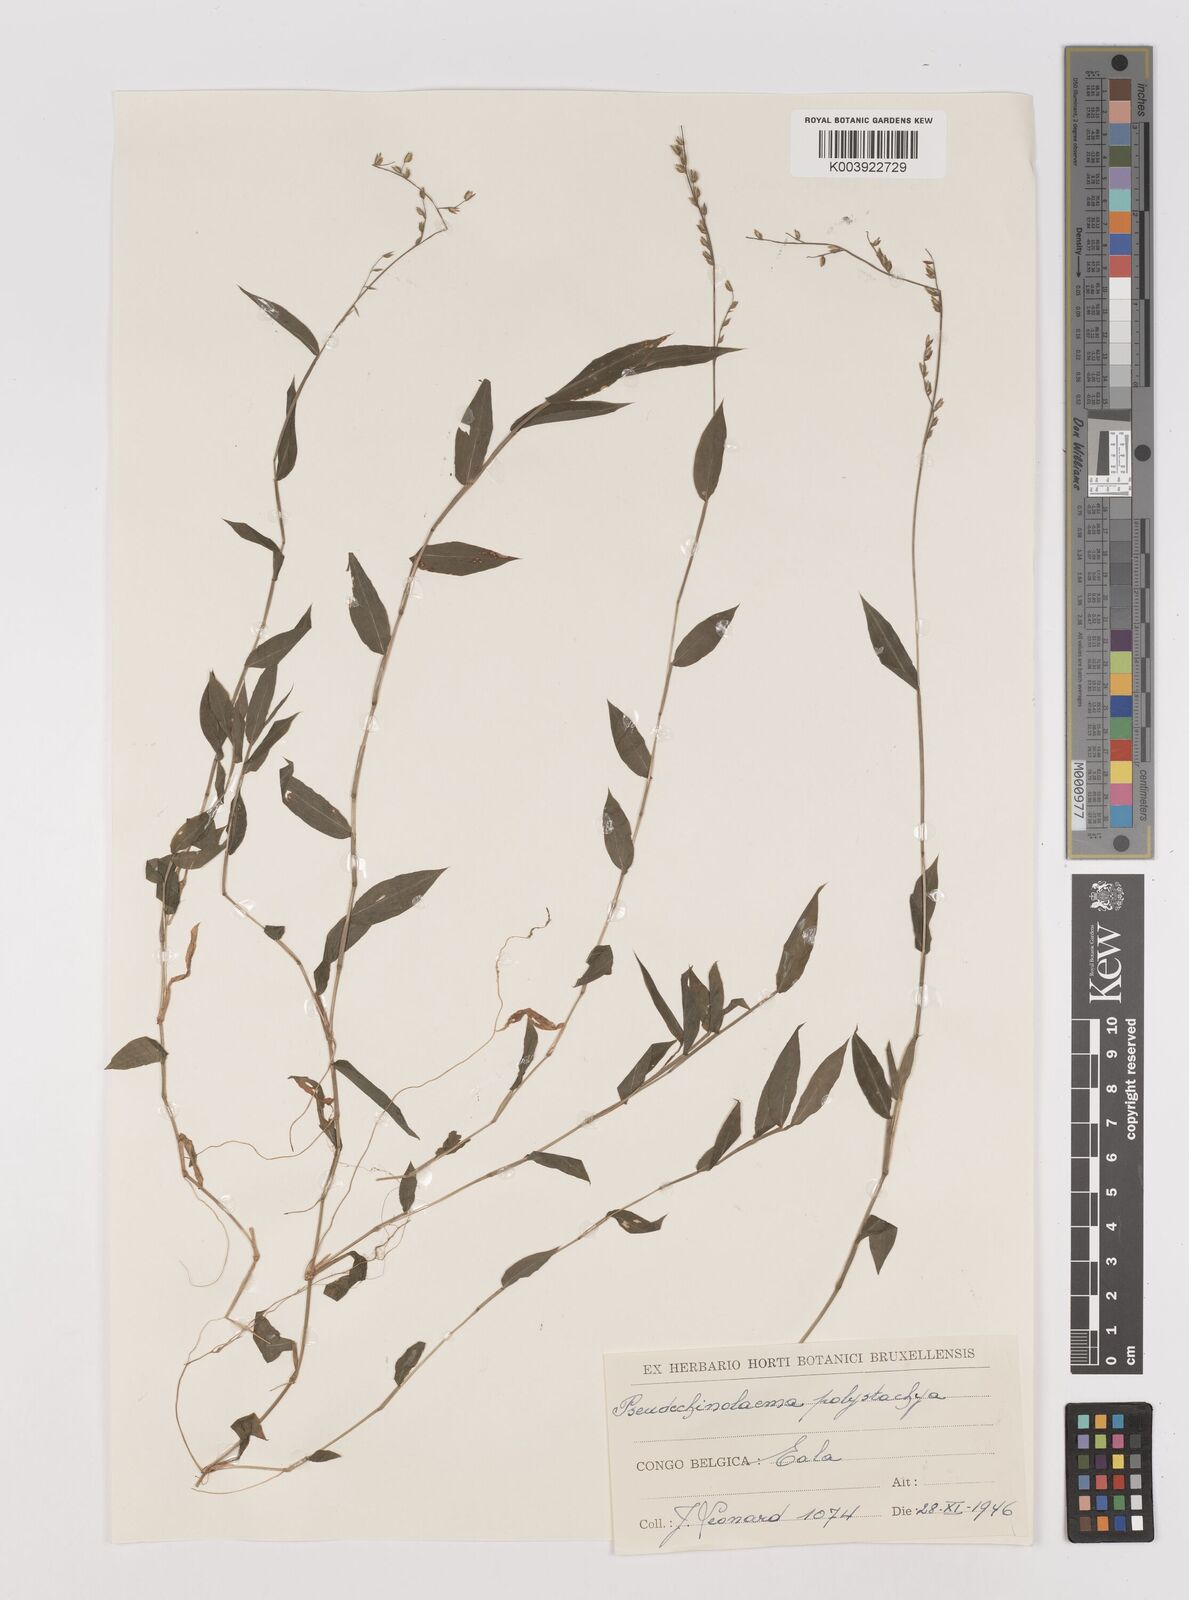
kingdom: Plantae
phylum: Tracheophyta
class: Liliopsida
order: Poales
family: Poaceae
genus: Pseudechinolaena
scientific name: Pseudechinolaena polystachya
